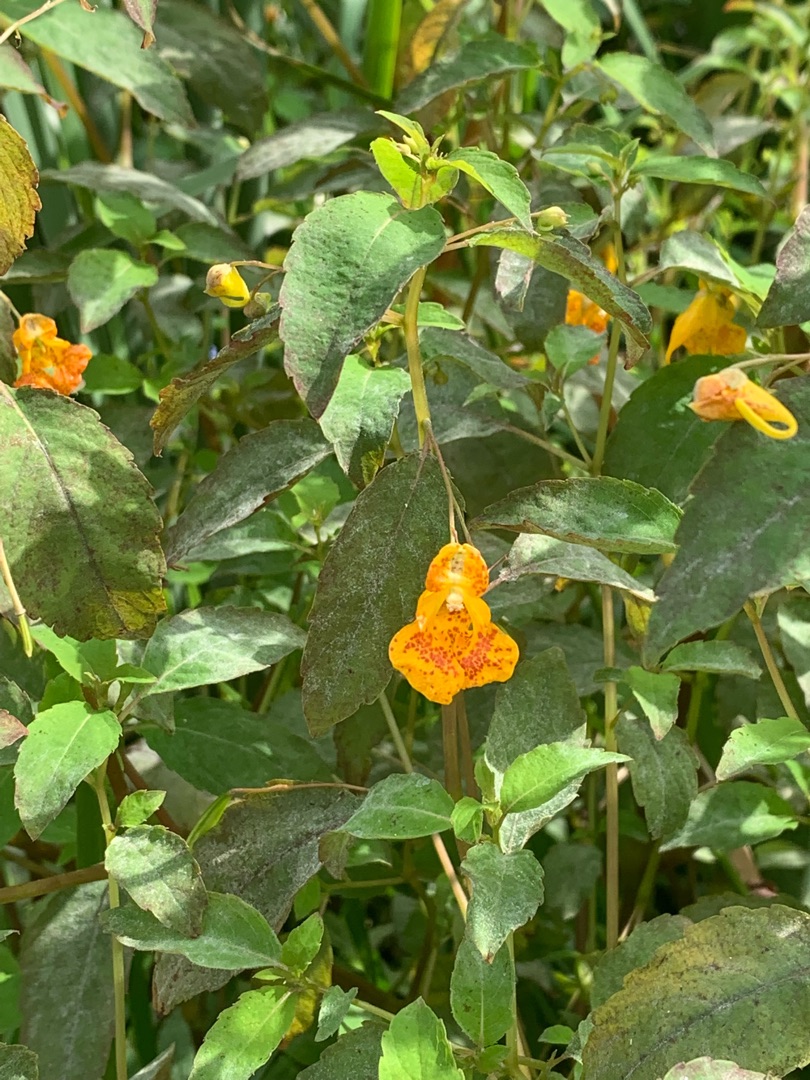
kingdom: Plantae
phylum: Tracheophyta
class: Magnoliopsida
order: Ericales
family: Balsaminaceae
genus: Impatiens
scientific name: Impatiens capensis
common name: Orange-balsamin
